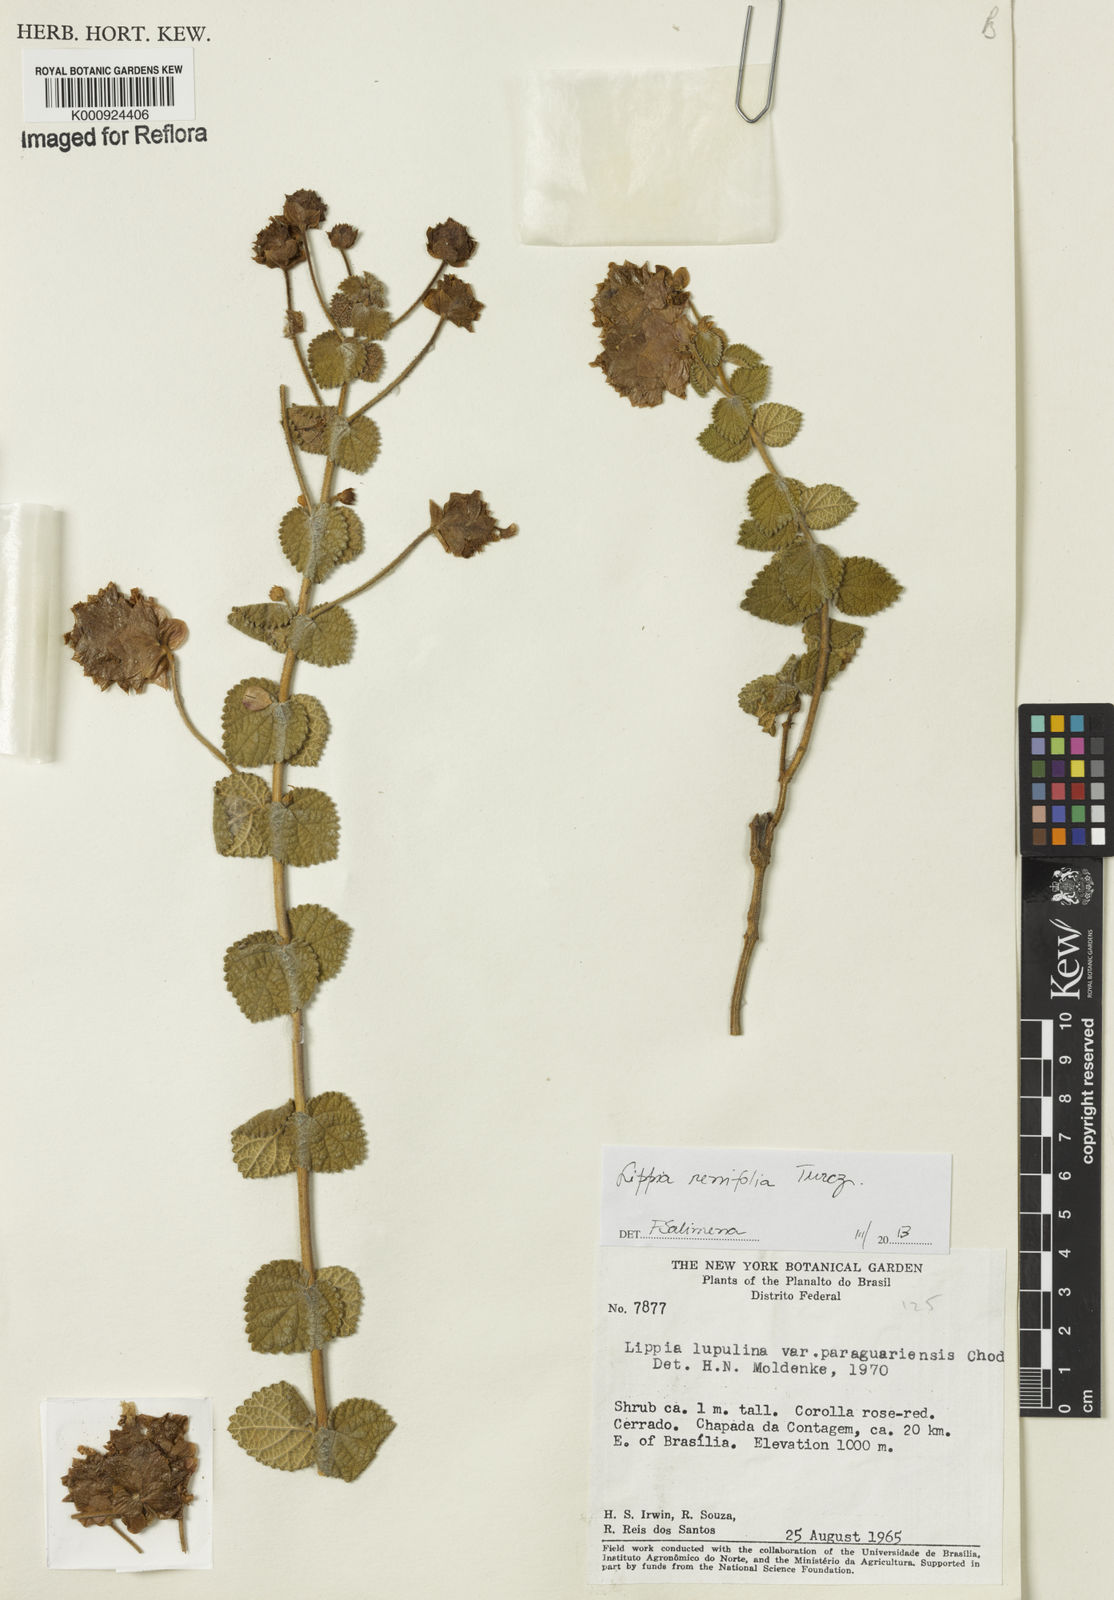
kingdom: Plantae
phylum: Tracheophyta
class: Magnoliopsida
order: Lamiales
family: Verbenaceae
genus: Lippia
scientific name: Lippia renifolia
